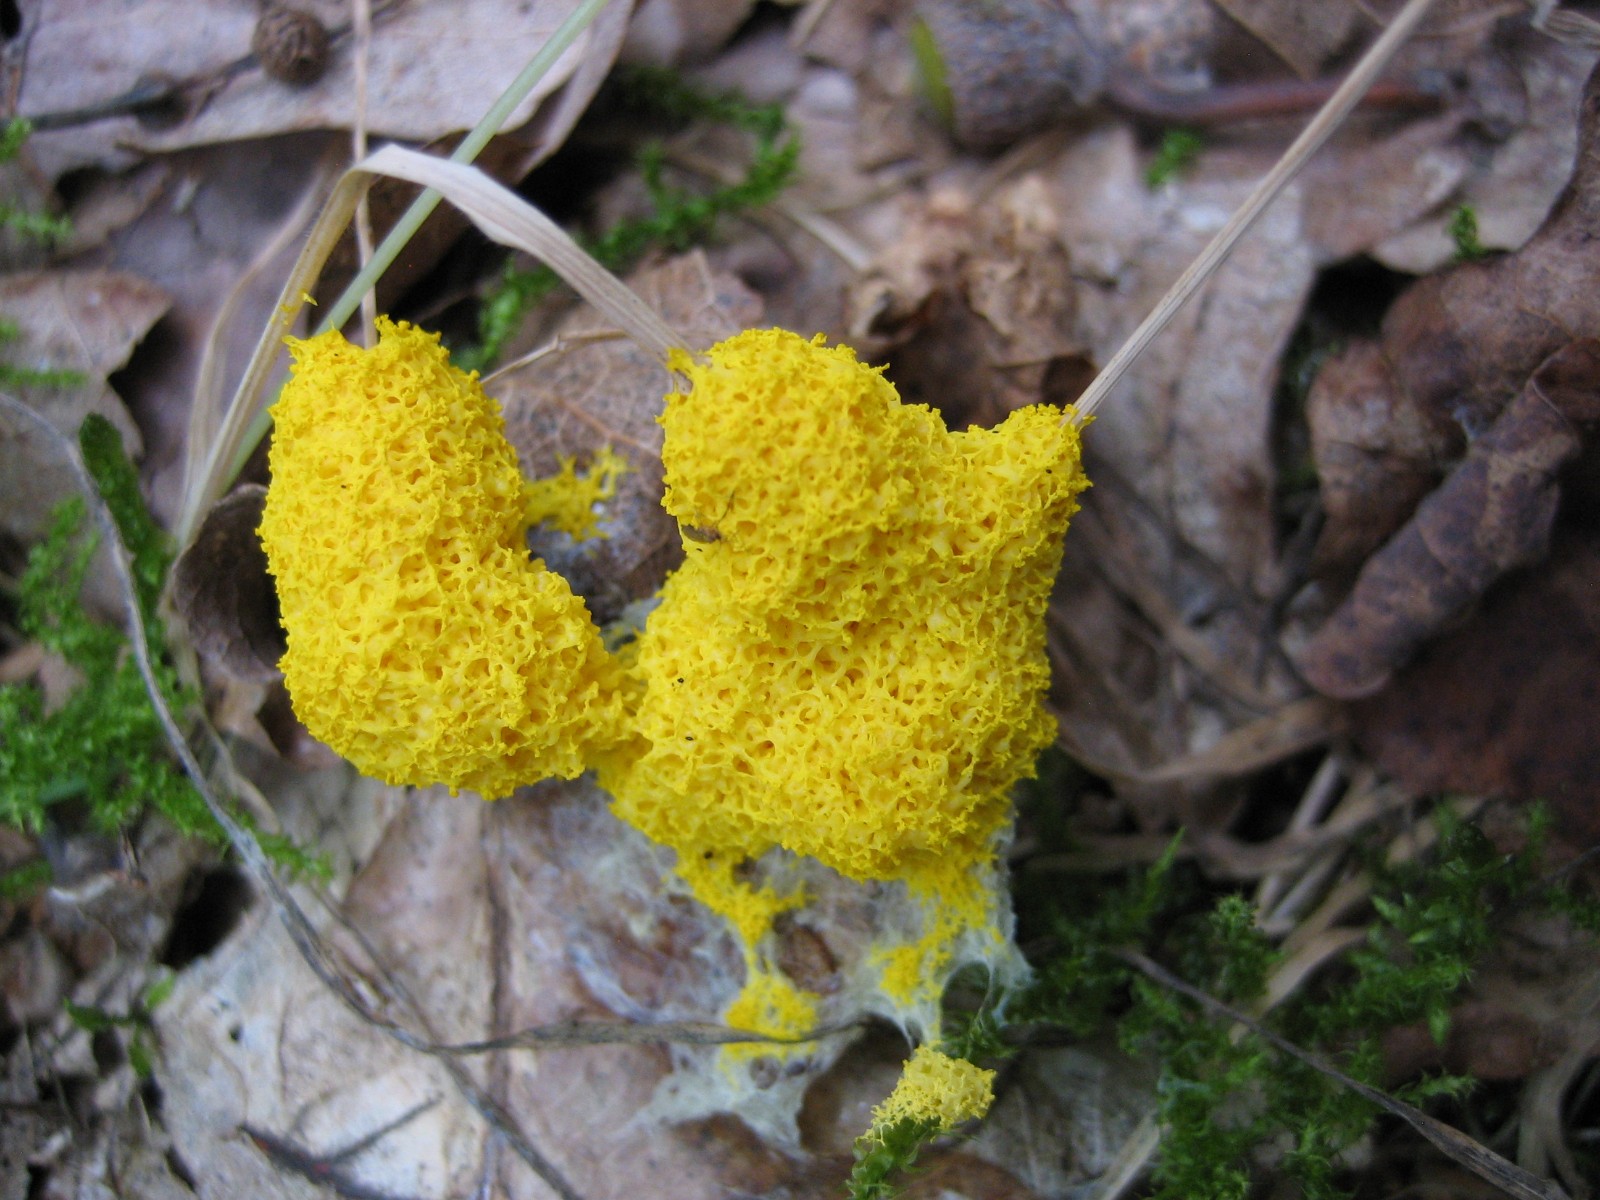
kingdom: Protozoa
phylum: Mycetozoa
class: Myxomycetes
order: Physarales
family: Physaraceae
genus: Fuligo
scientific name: Fuligo septica
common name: gul troldsmør
